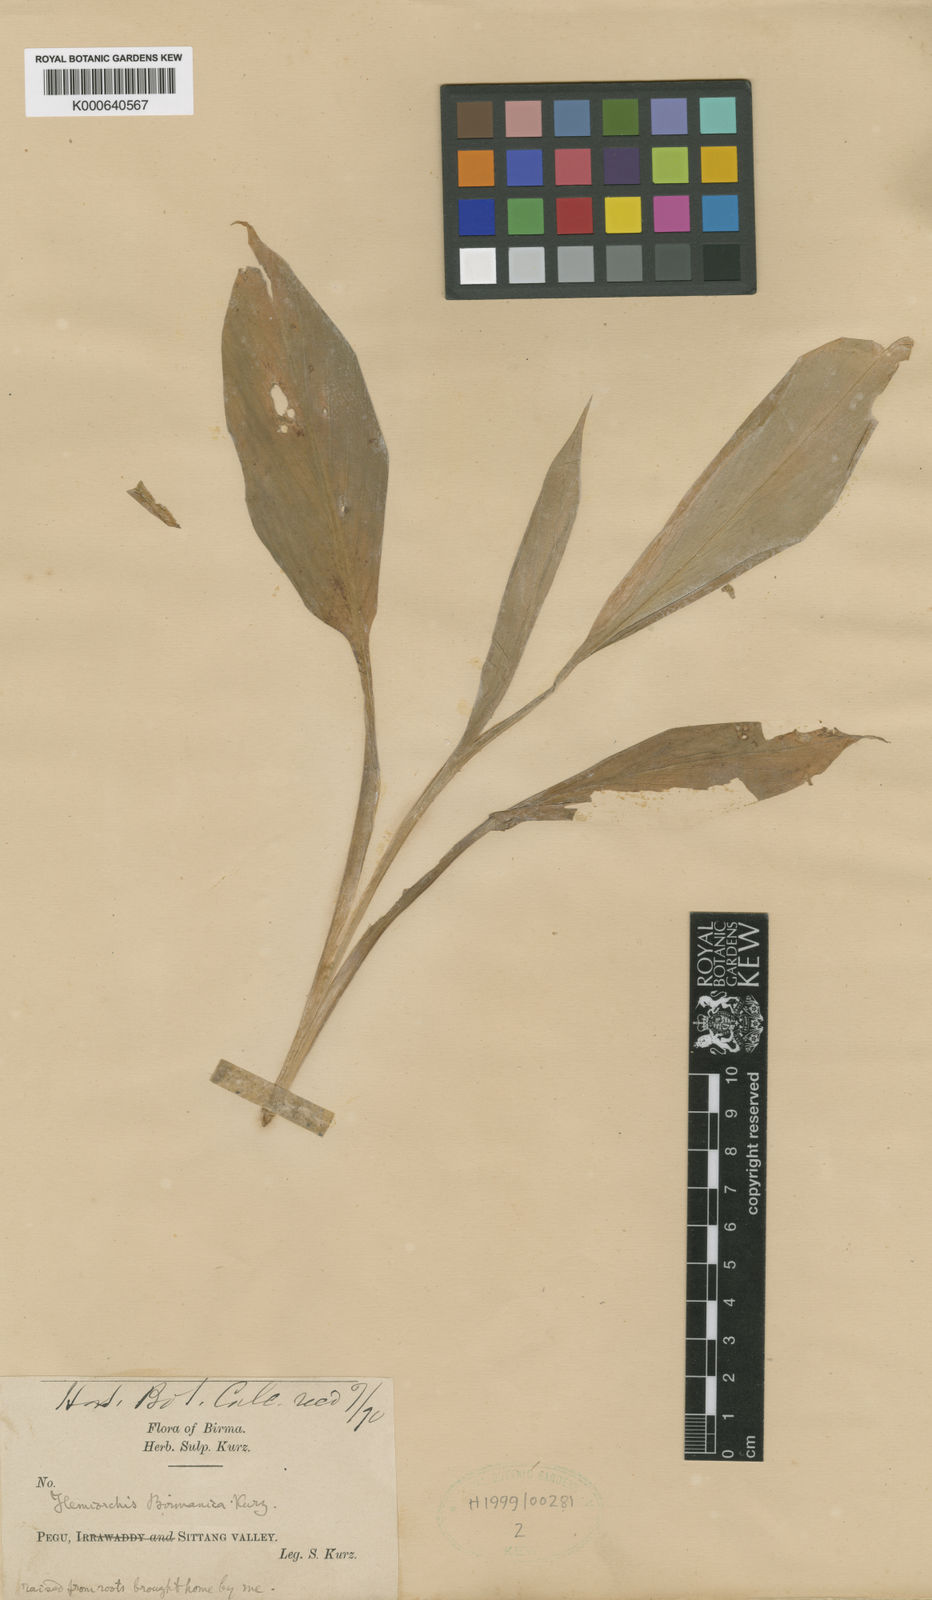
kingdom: Plantae
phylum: Tracheophyta
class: Liliopsida
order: Zingiberales
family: Zingiberaceae
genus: Hemiorchis
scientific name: Hemiorchis burmanica
